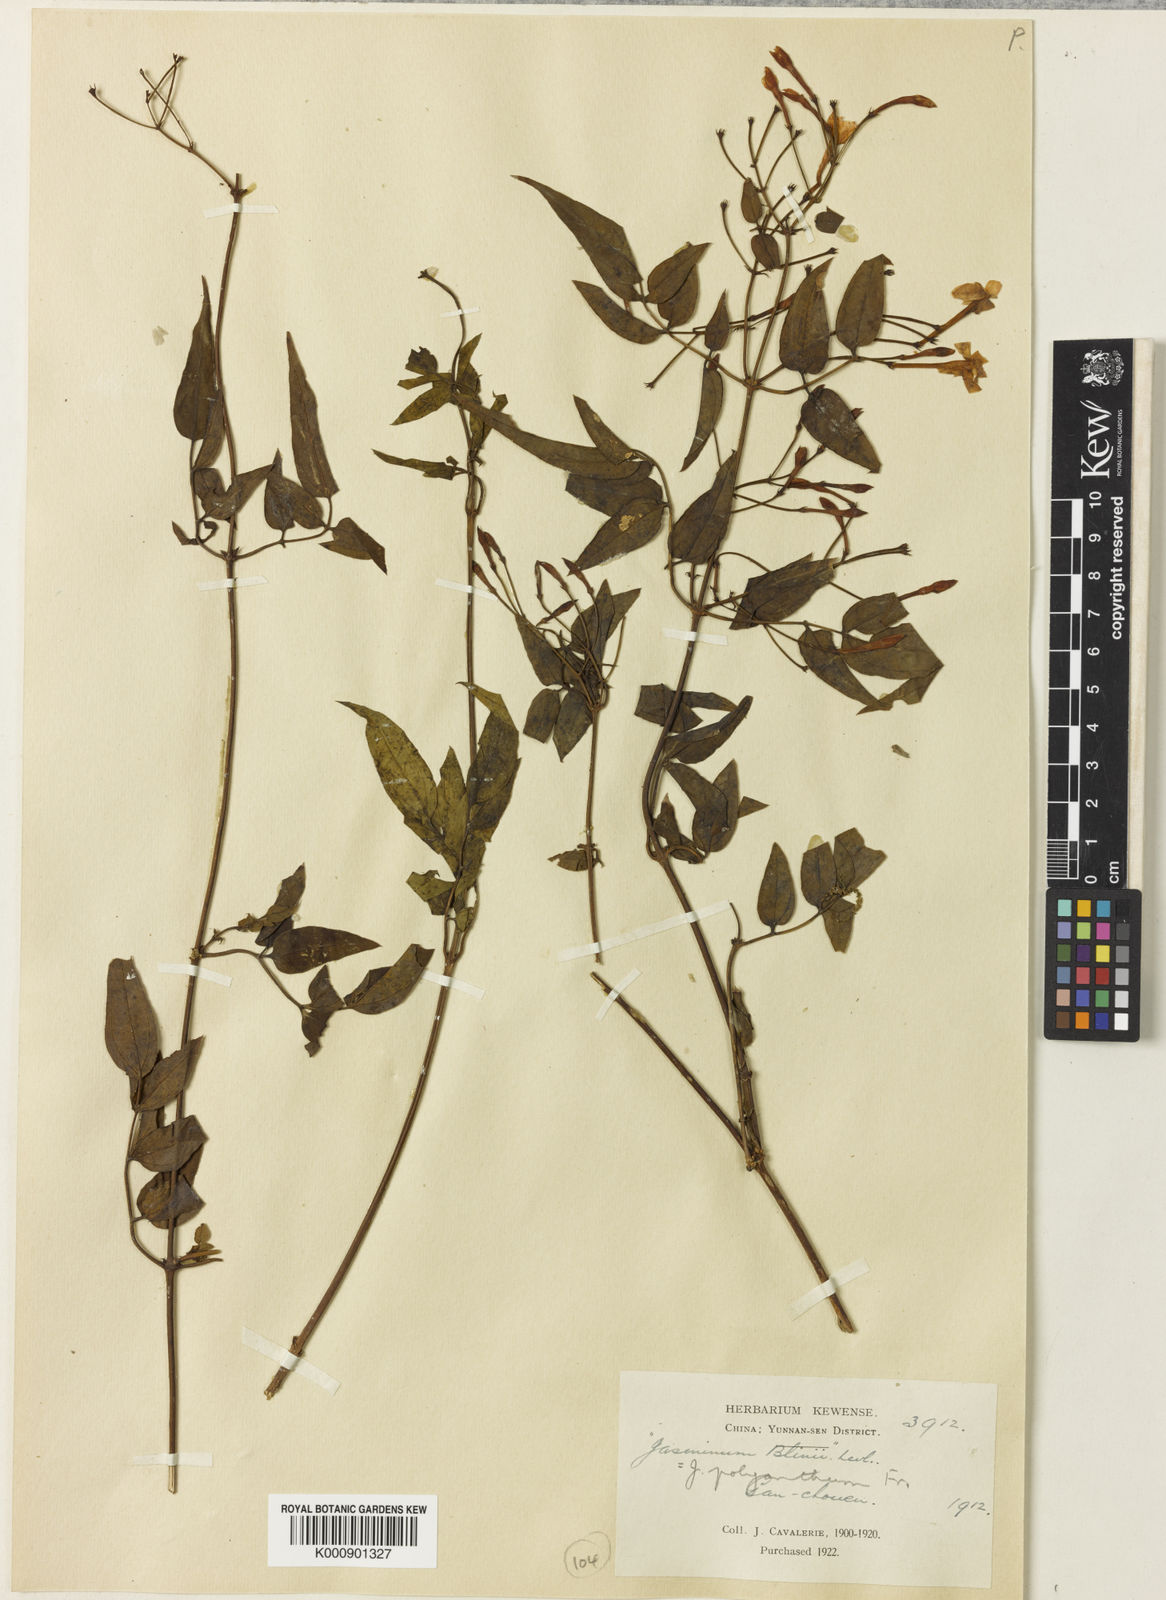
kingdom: Plantae
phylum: Tracheophyta
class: Magnoliopsida
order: Lamiales
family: Oleaceae
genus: Jasminum
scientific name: Jasminum polyanthum
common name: Pink jasmine
